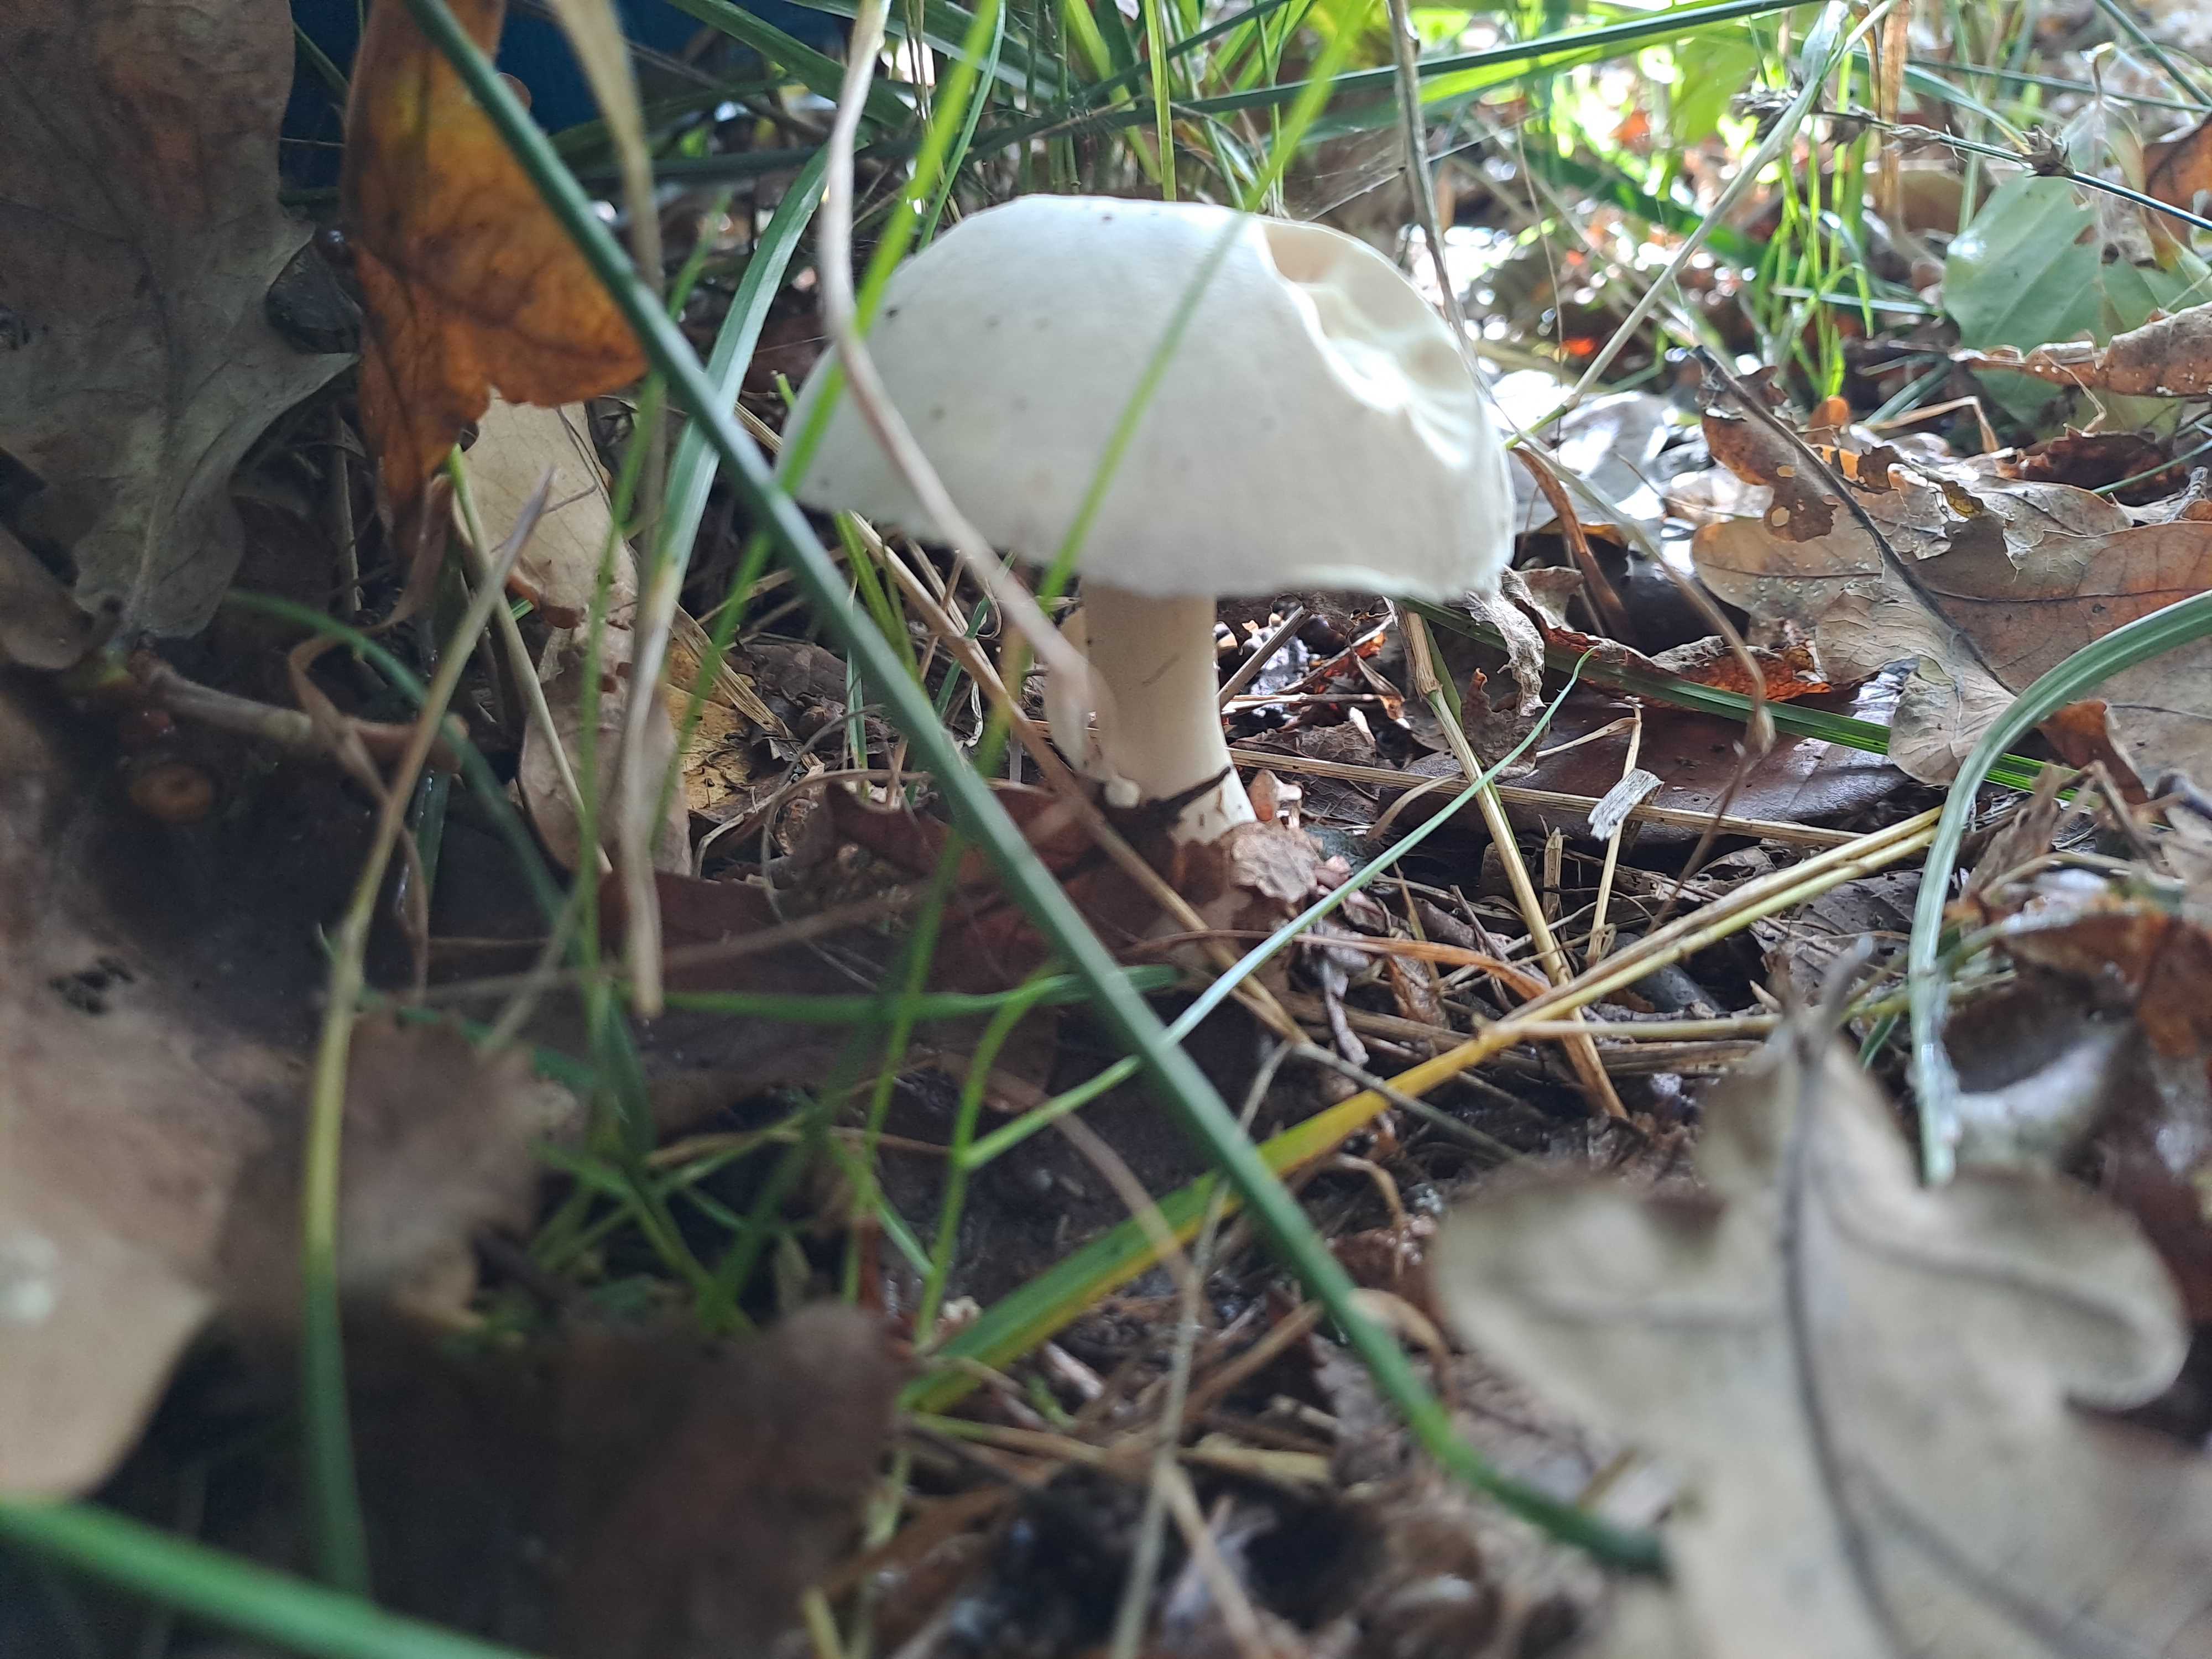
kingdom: Fungi
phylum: Basidiomycota
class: Agaricomycetes
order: Agaricales
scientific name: Agaricales
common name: champignonordenen
